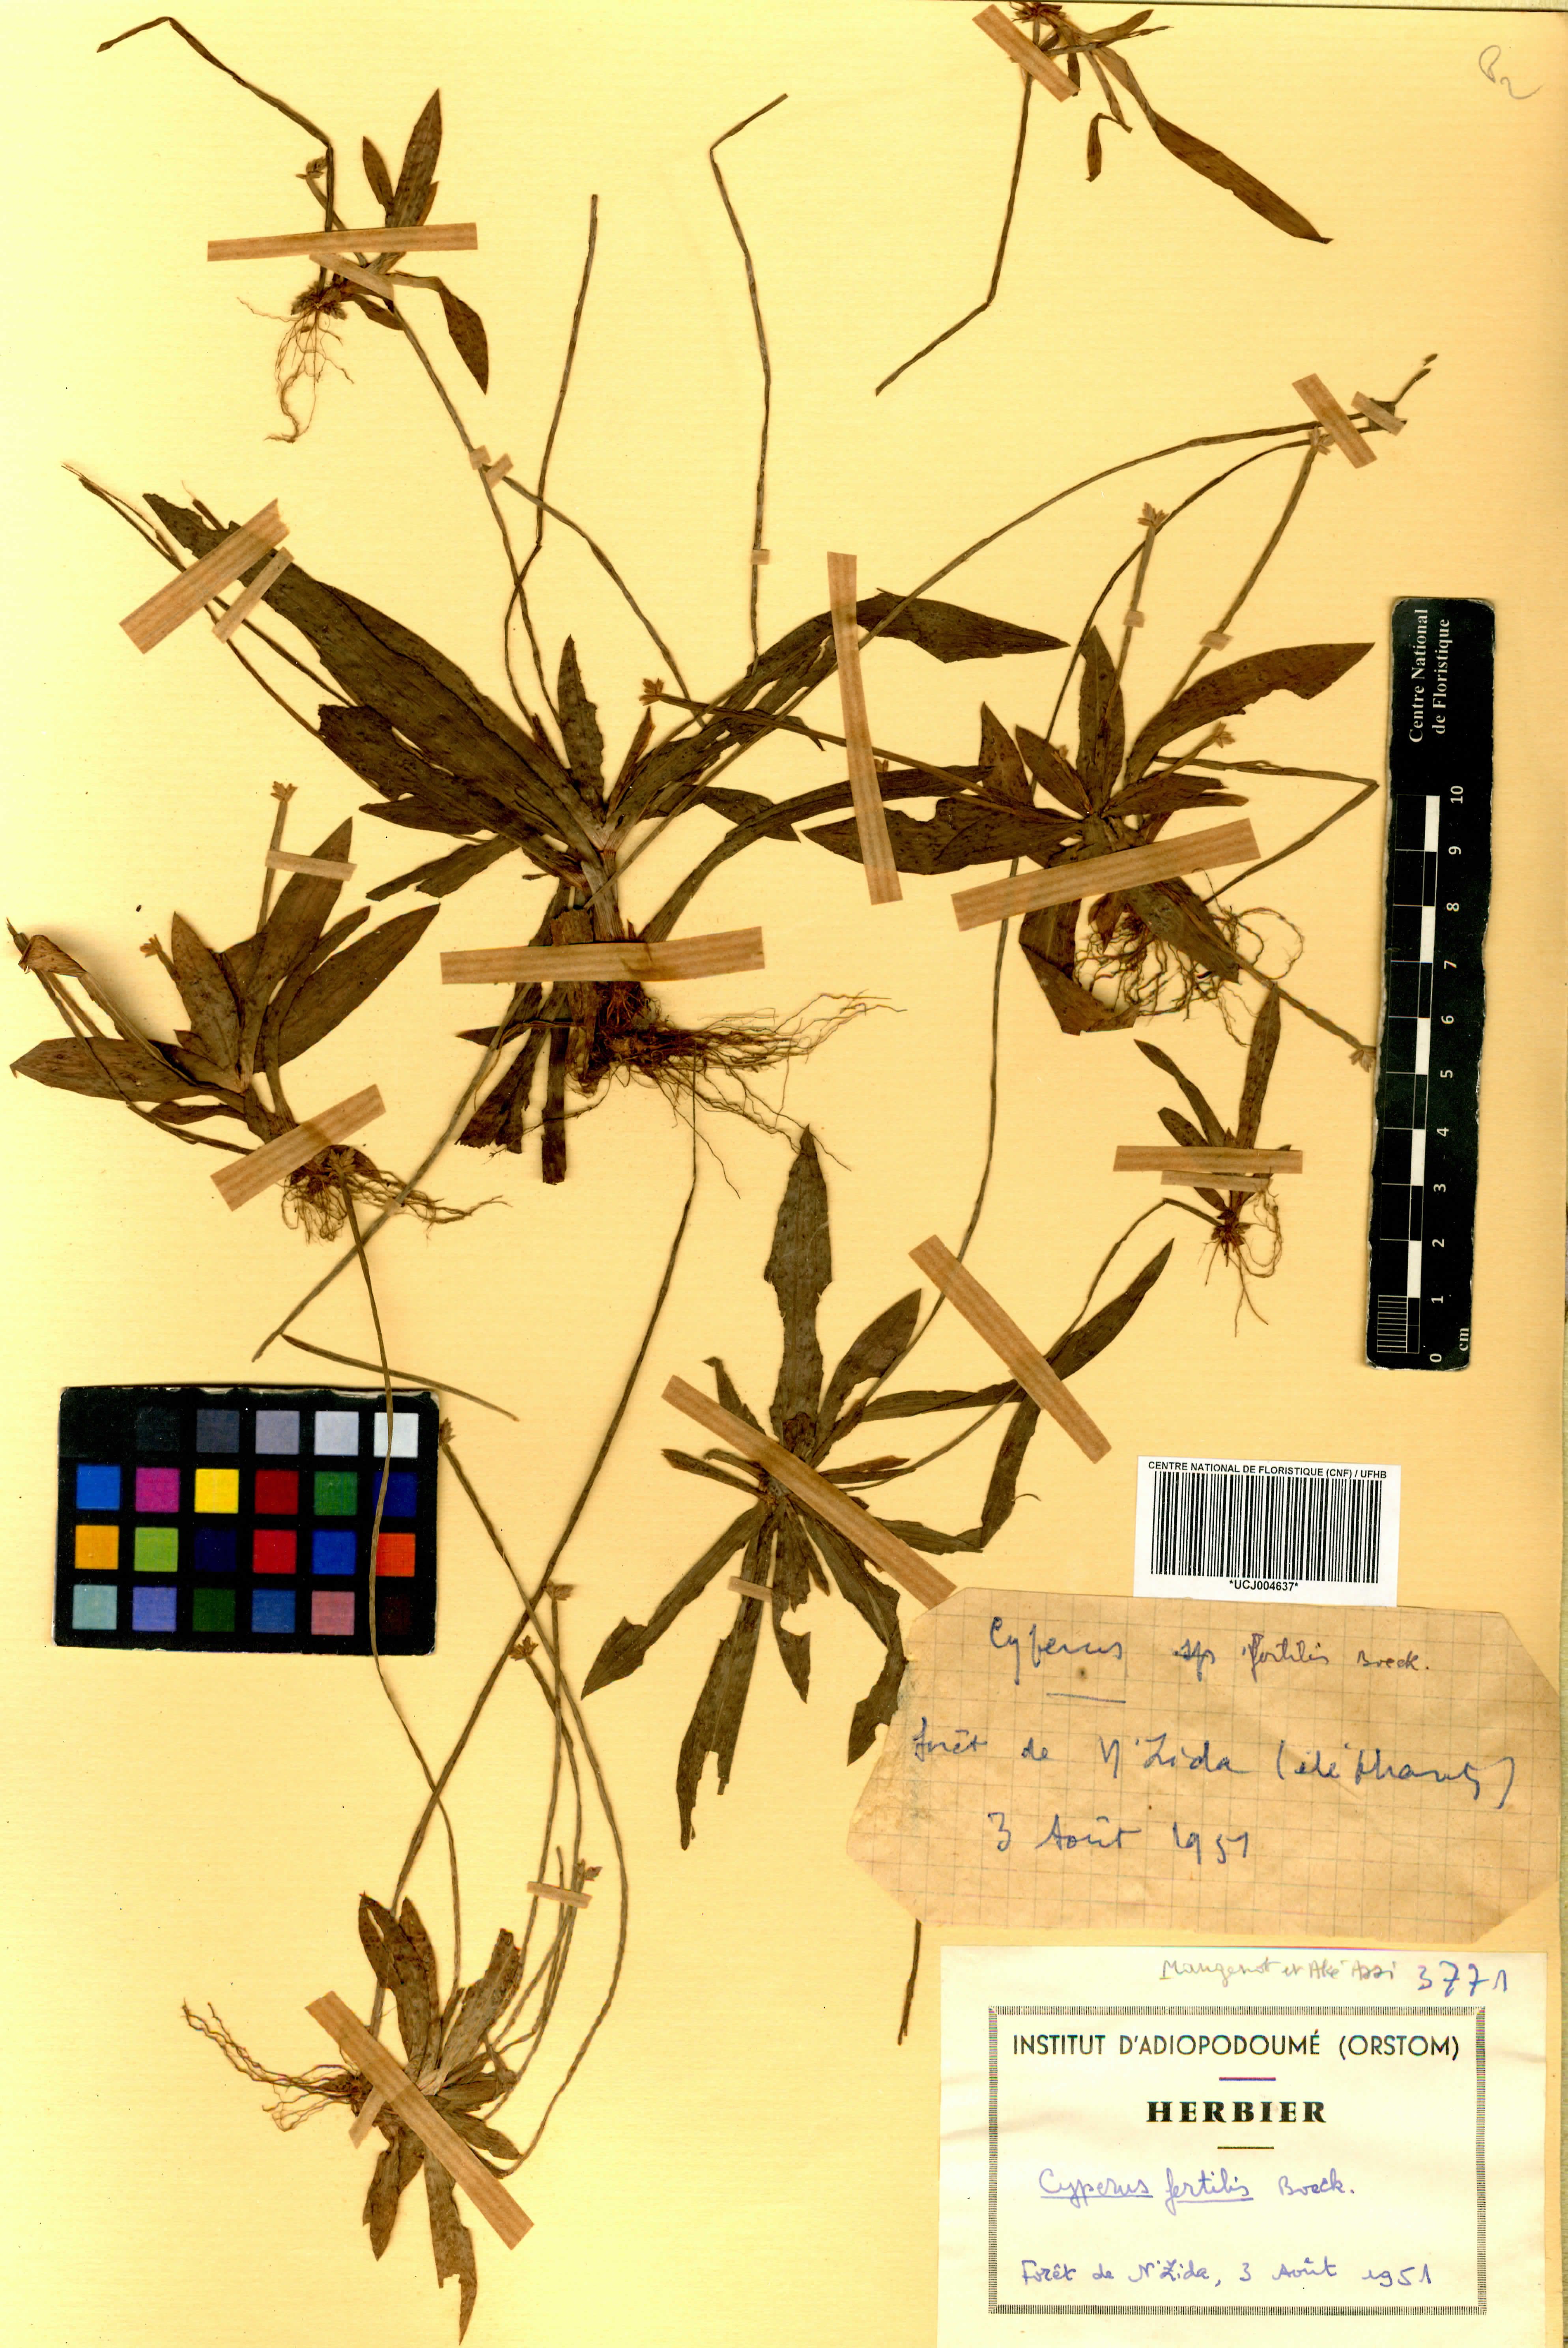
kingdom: Plantae
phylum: Tracheophyta
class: Liliopsida
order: Poales
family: Cyperaceae
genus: Cyperus
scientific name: Cyperus fertilis
